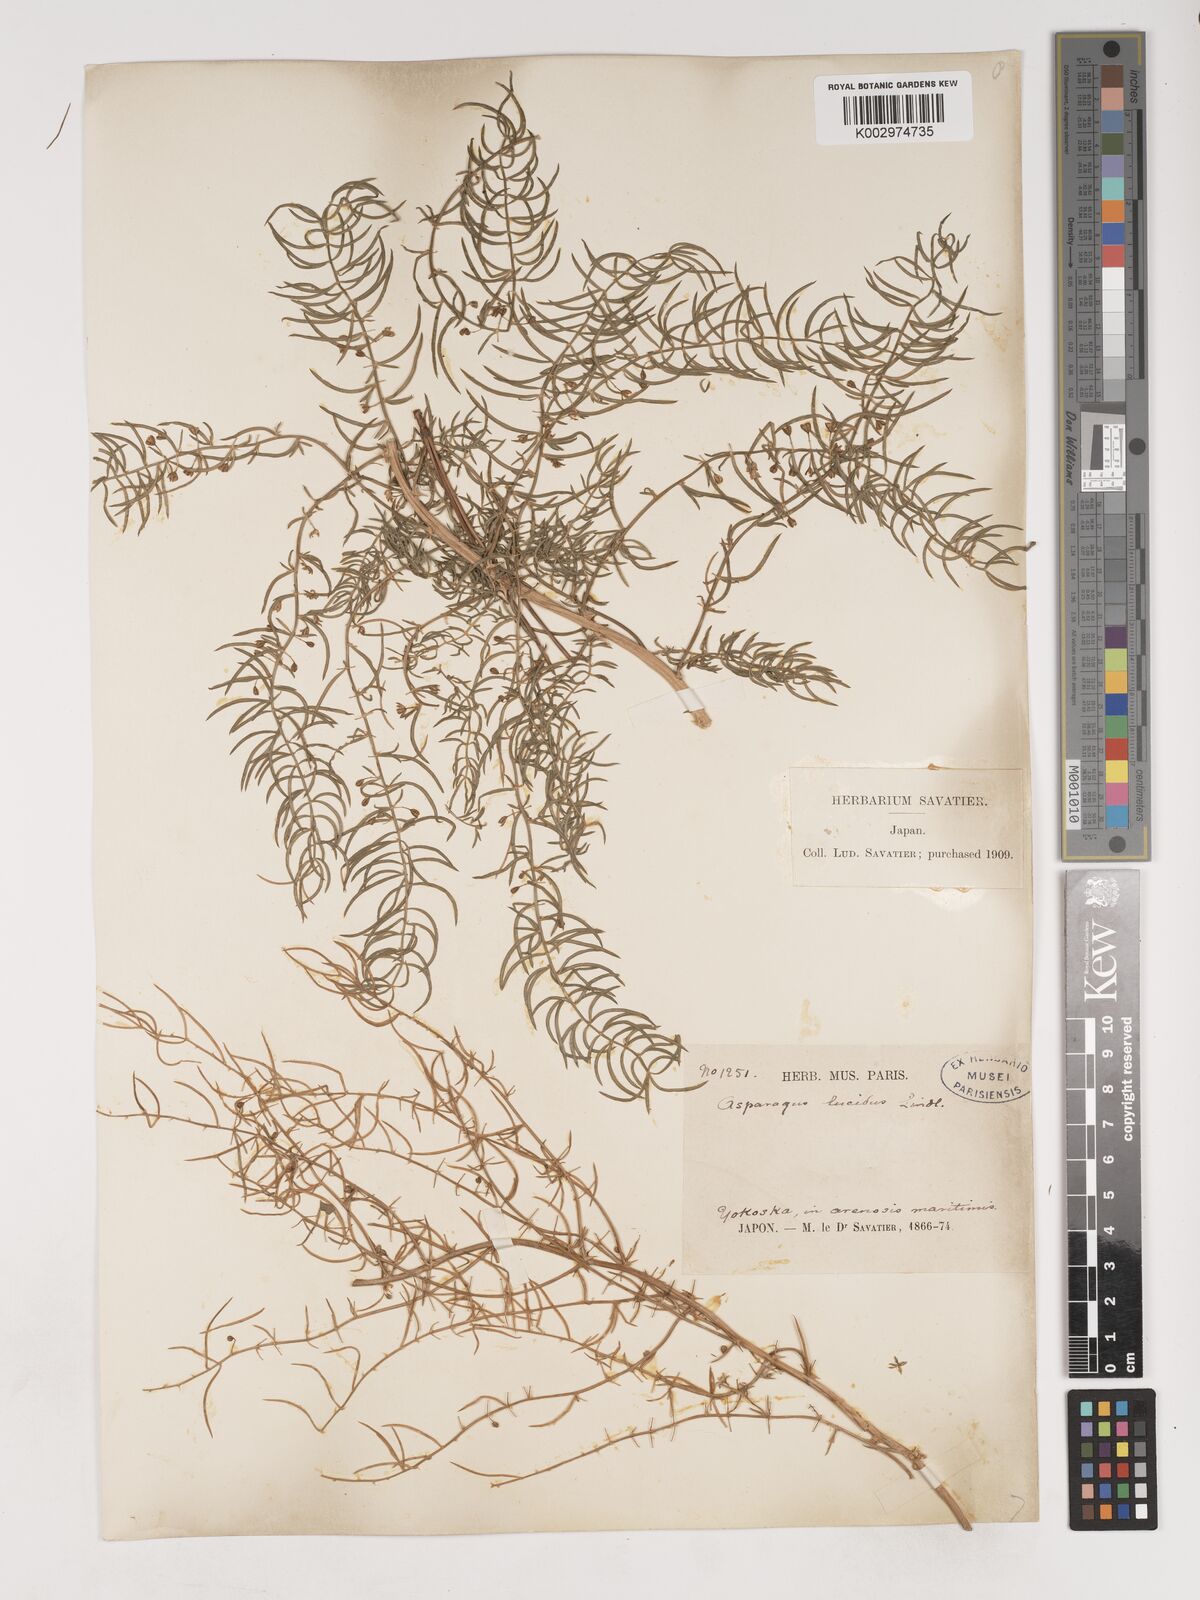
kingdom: Plantae
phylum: Tracheophyta
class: Liliopsida
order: Asparagales
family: Asparagaceae
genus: Asparagus
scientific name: Asparagus cochinchinensis
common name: Chinese asparagus
